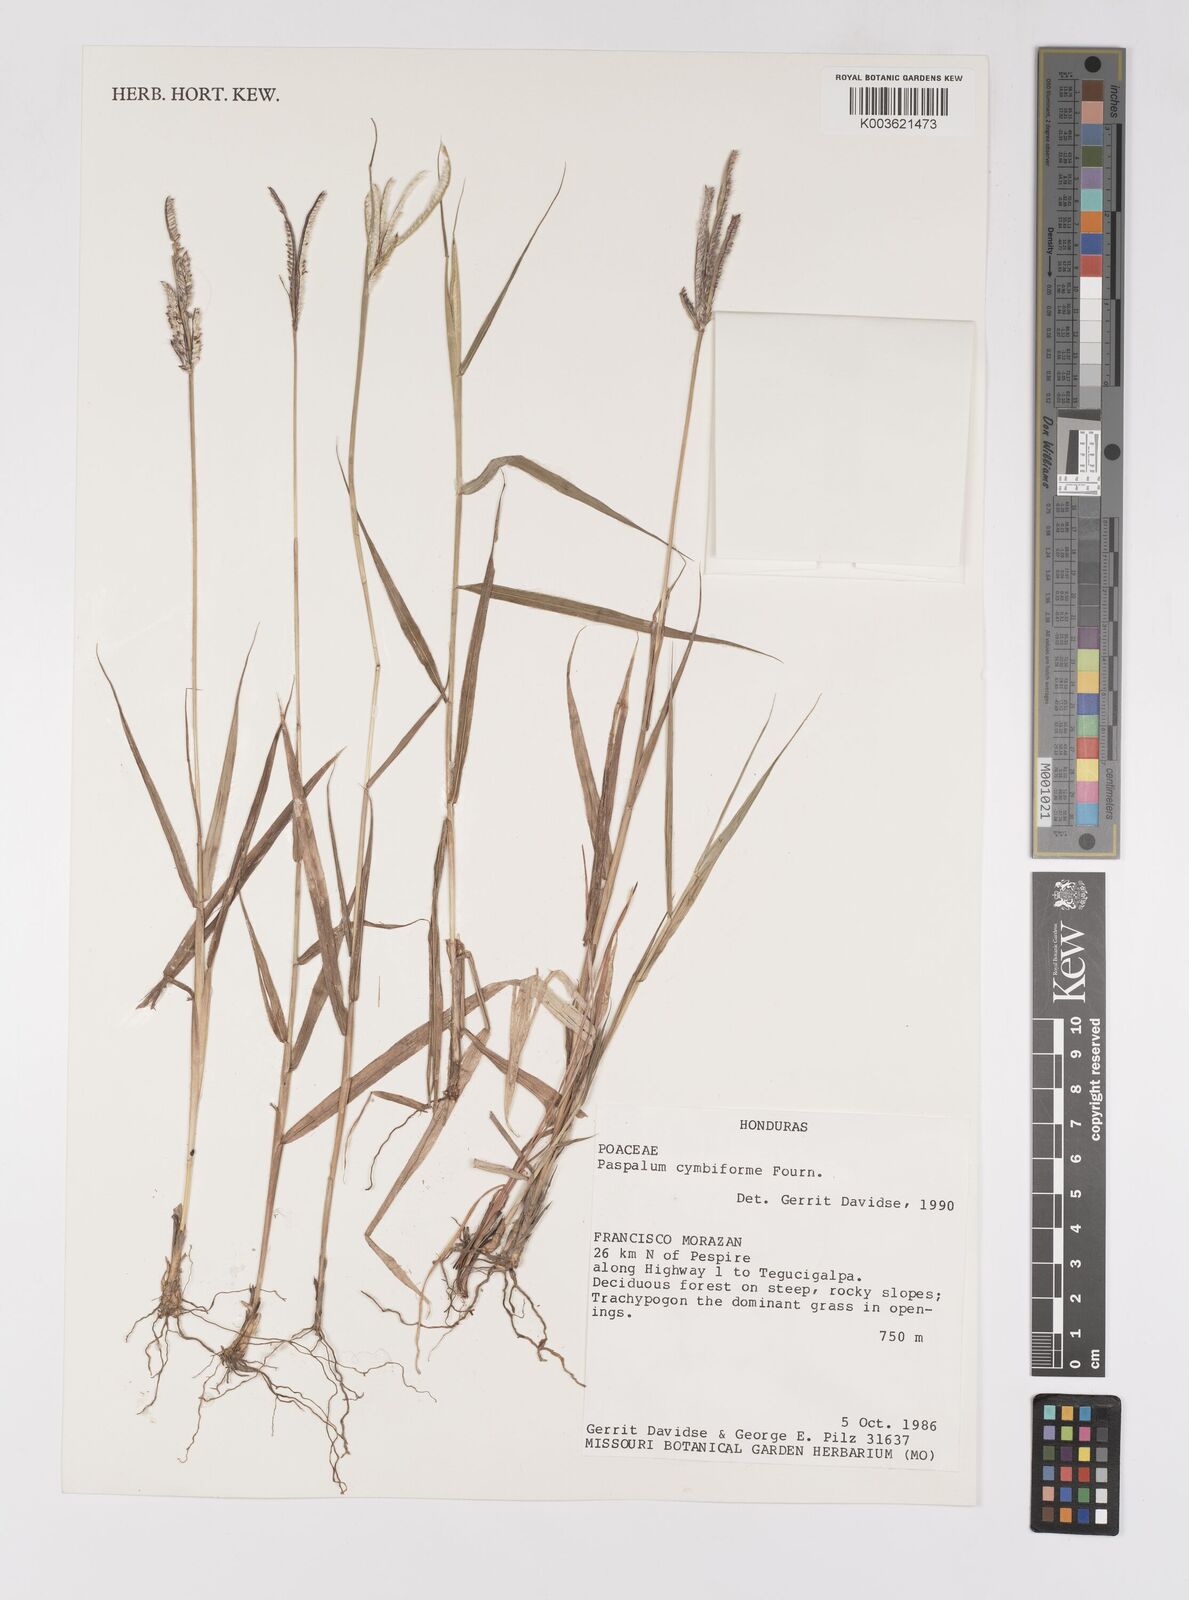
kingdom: Plantae
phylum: Tracheophyta
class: Liliopsida
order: Poales
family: Poaceae
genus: Paspalum
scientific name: Paspalum cymbiforme
